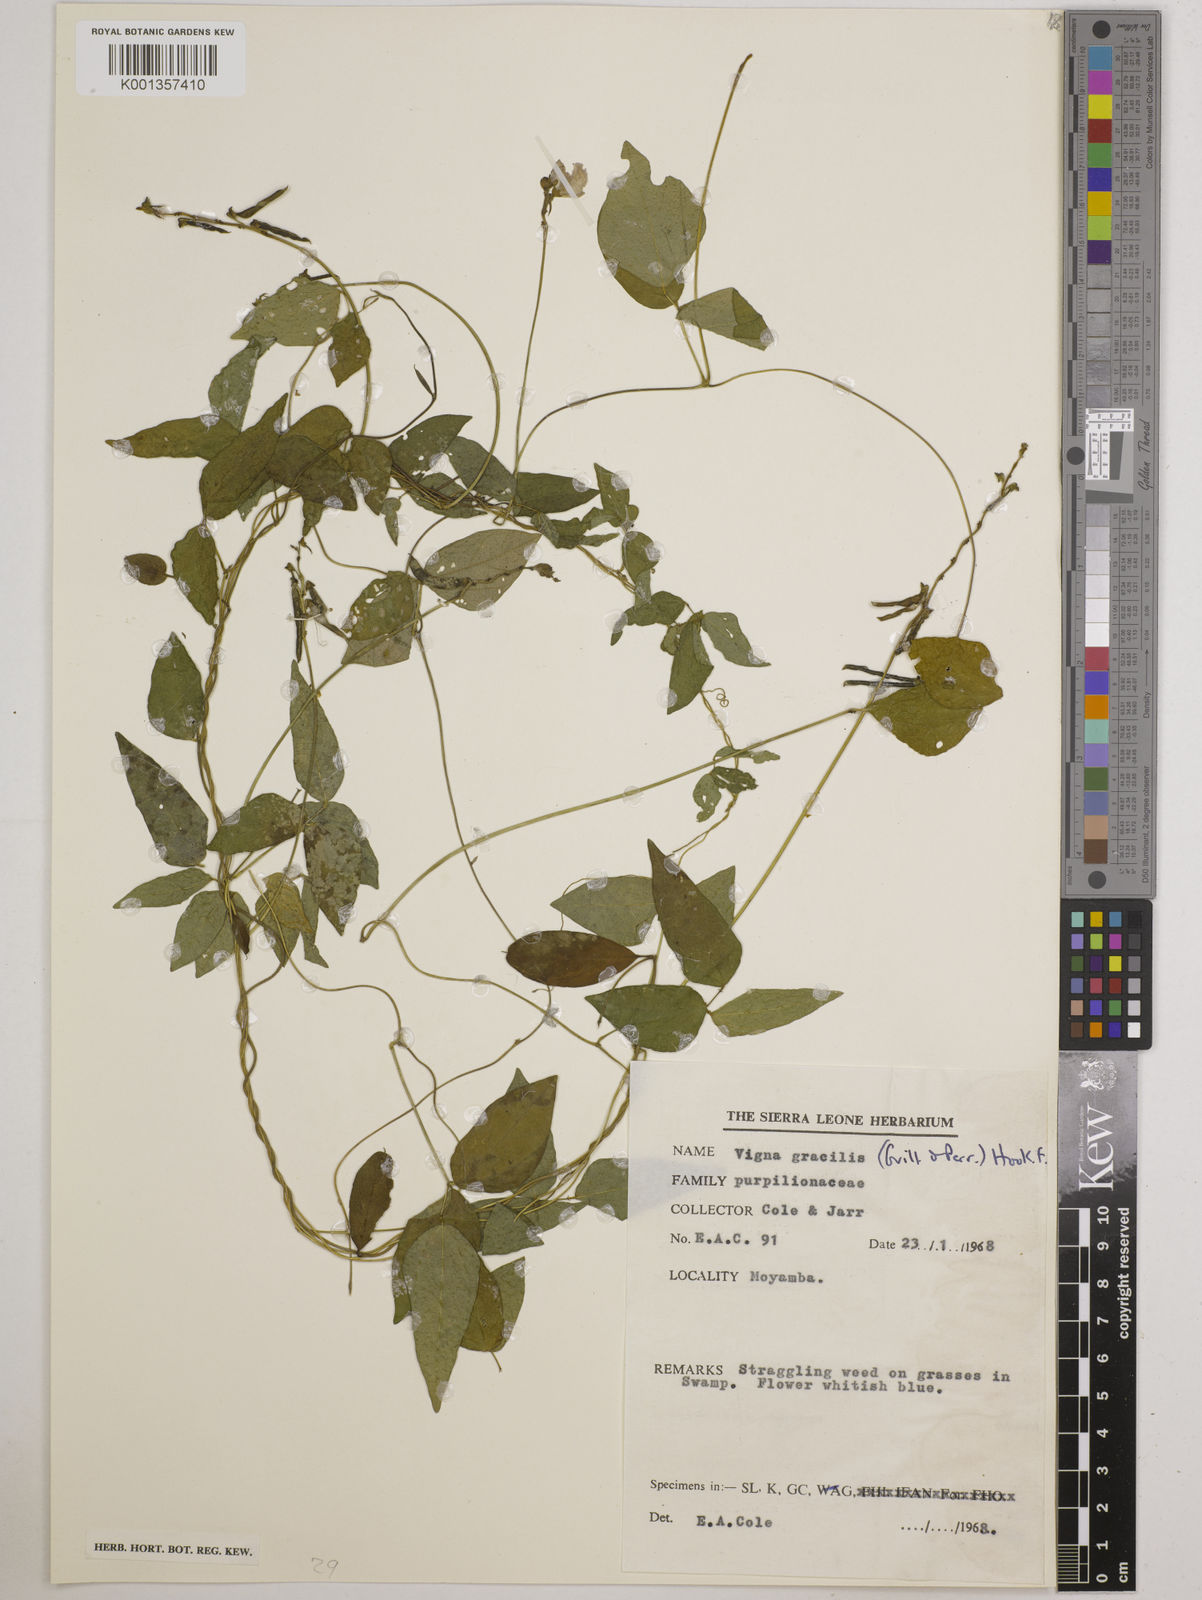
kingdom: Plantae
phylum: Tracheophyta
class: Magnoliopsida
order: Fabales
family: Fabaceae
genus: Vigna
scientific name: Vigna gracilis
